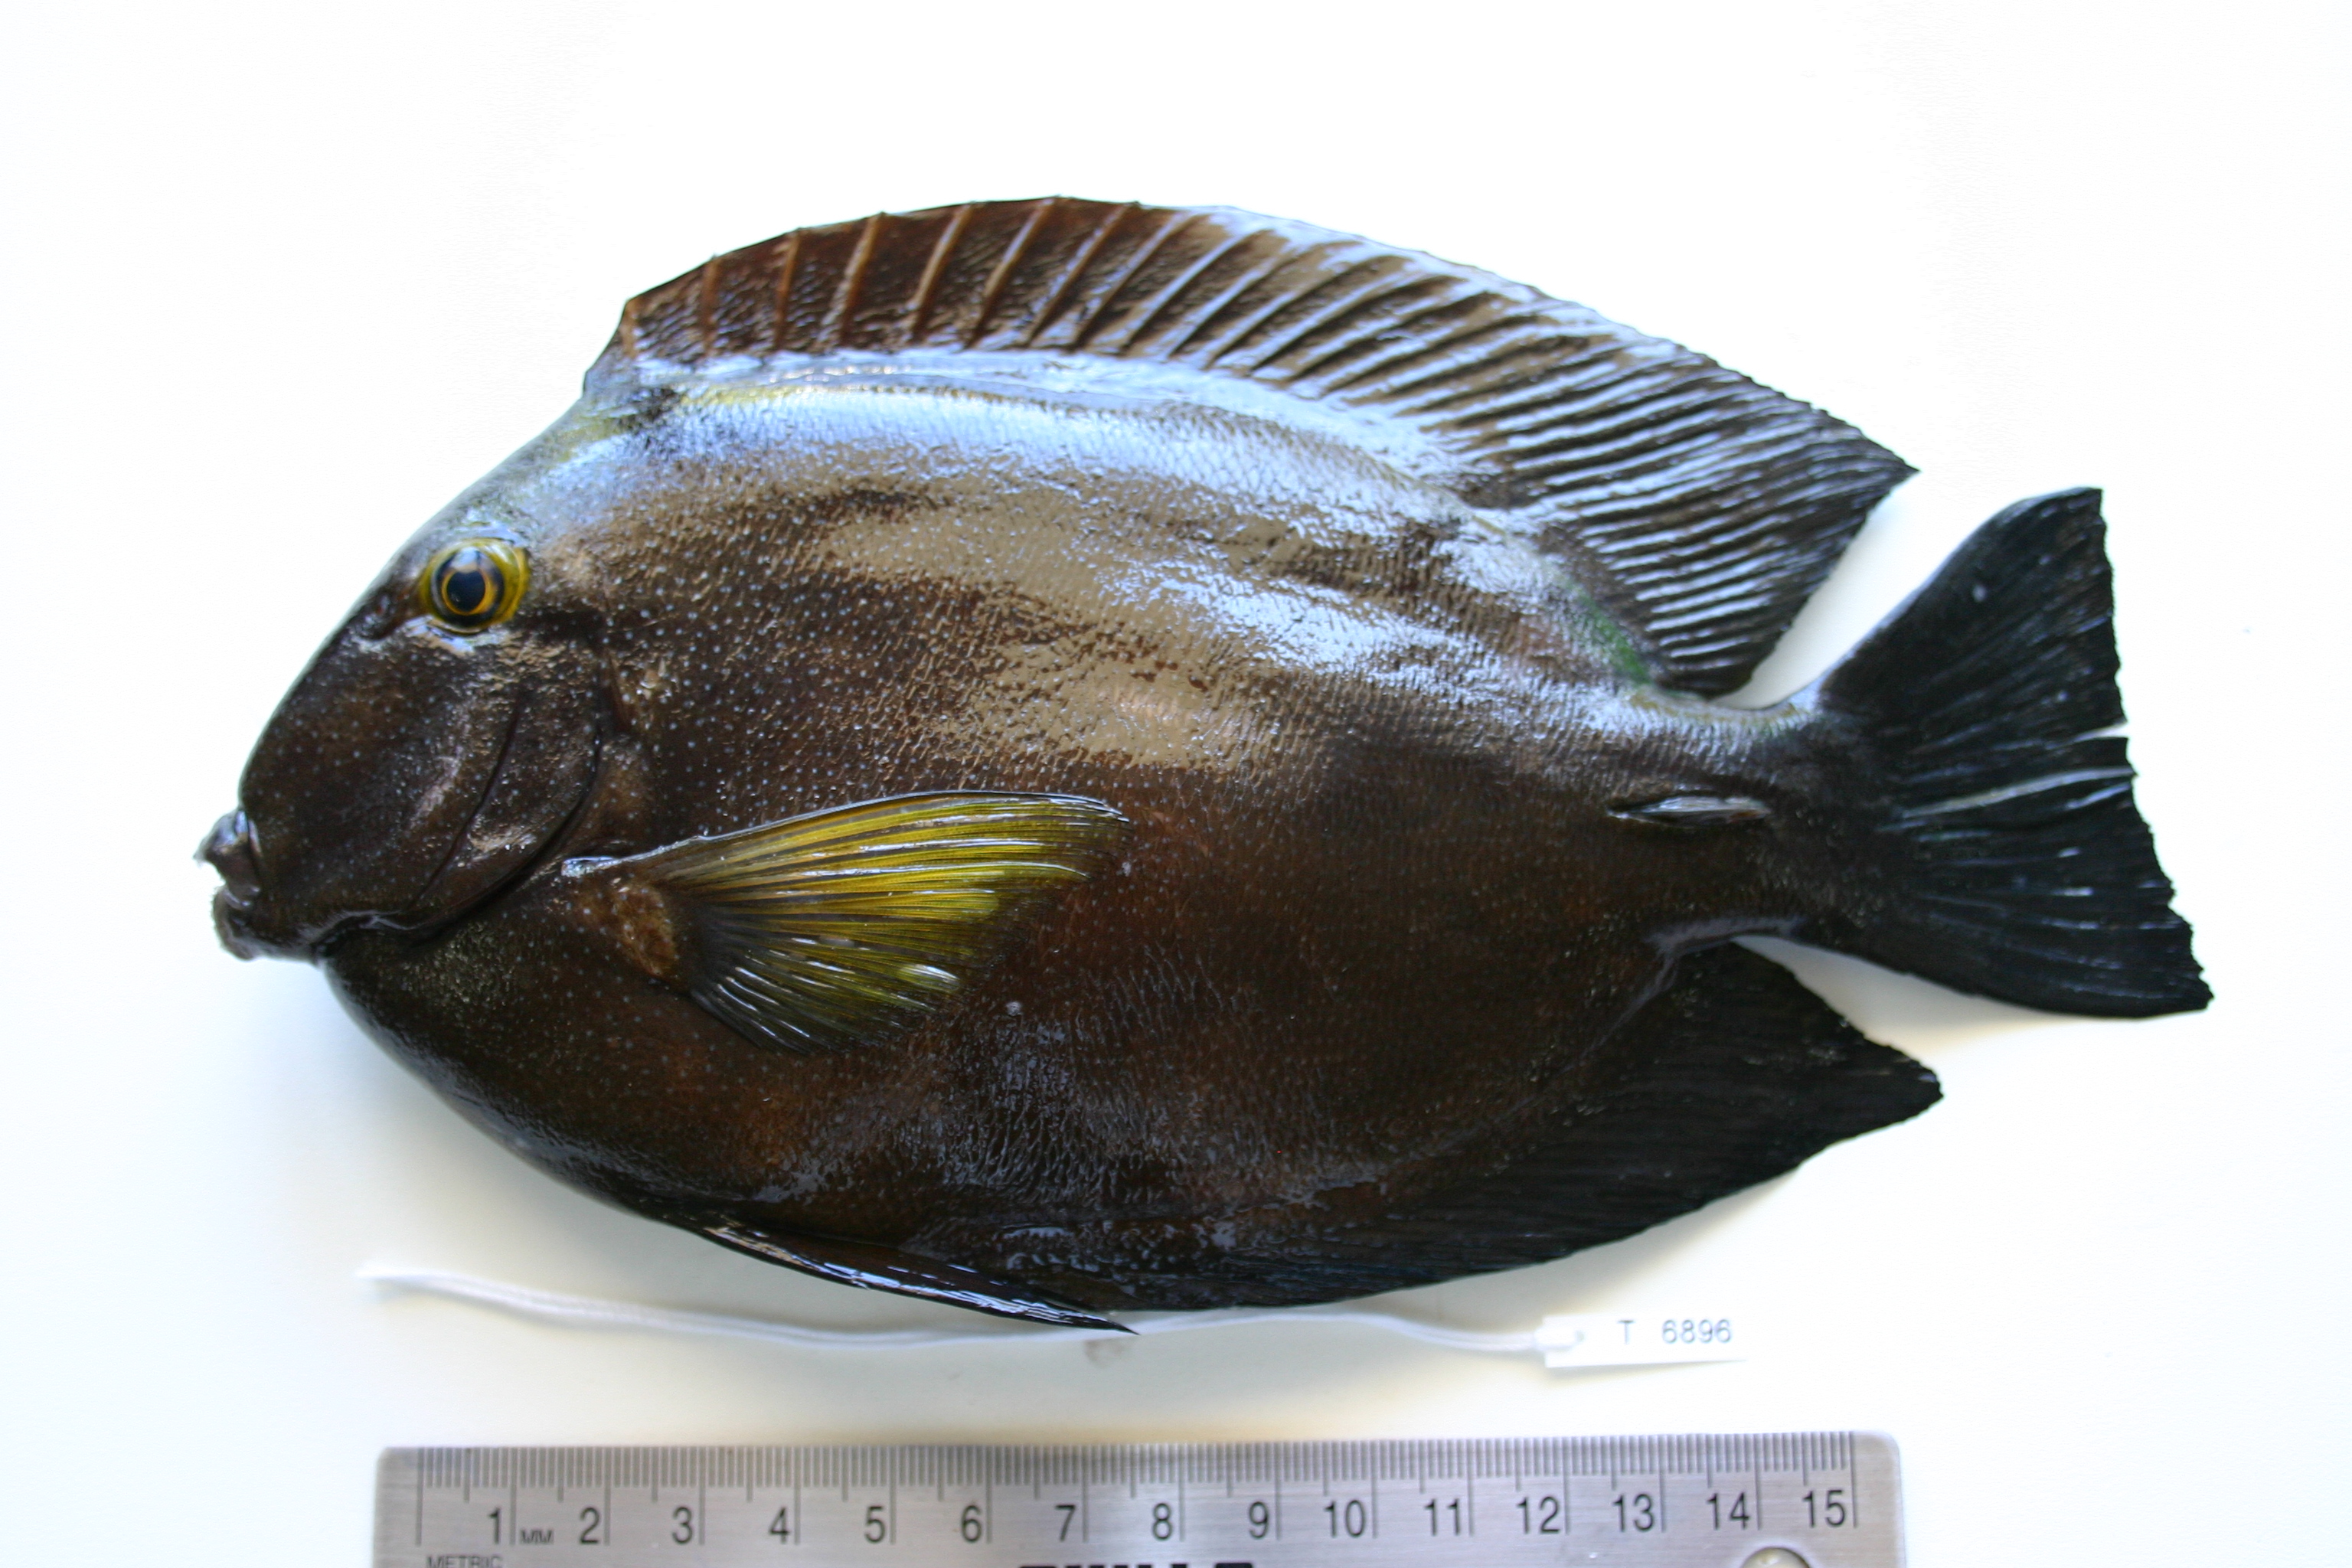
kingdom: Animalia
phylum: Chordata
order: Perciformes
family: Acanthuridae
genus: Ctenochaetus
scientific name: Ctenochaetus truncatus
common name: Indian gold-ring bristle-tooth
